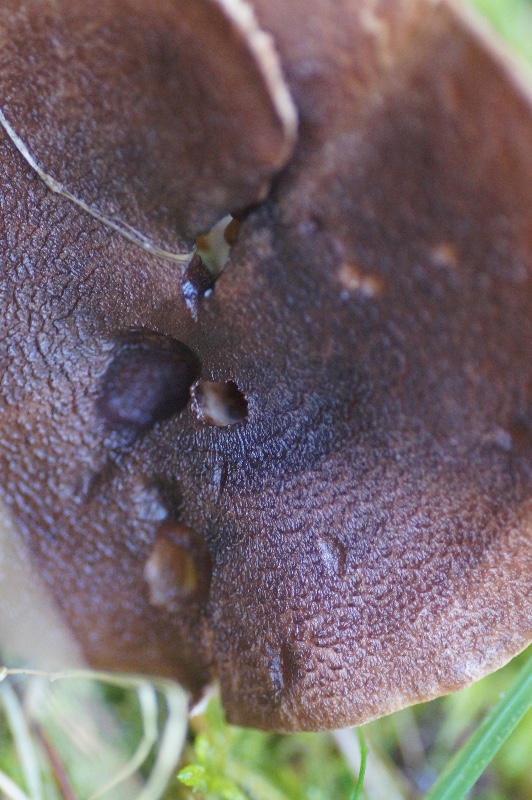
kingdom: Fungi
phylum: Basidiomycota
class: Agaricomycetes
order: Agaricales
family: Tricholomataceae
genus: Tricholoma
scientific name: Tricholoma imbricatum
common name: skællet ridderhat
